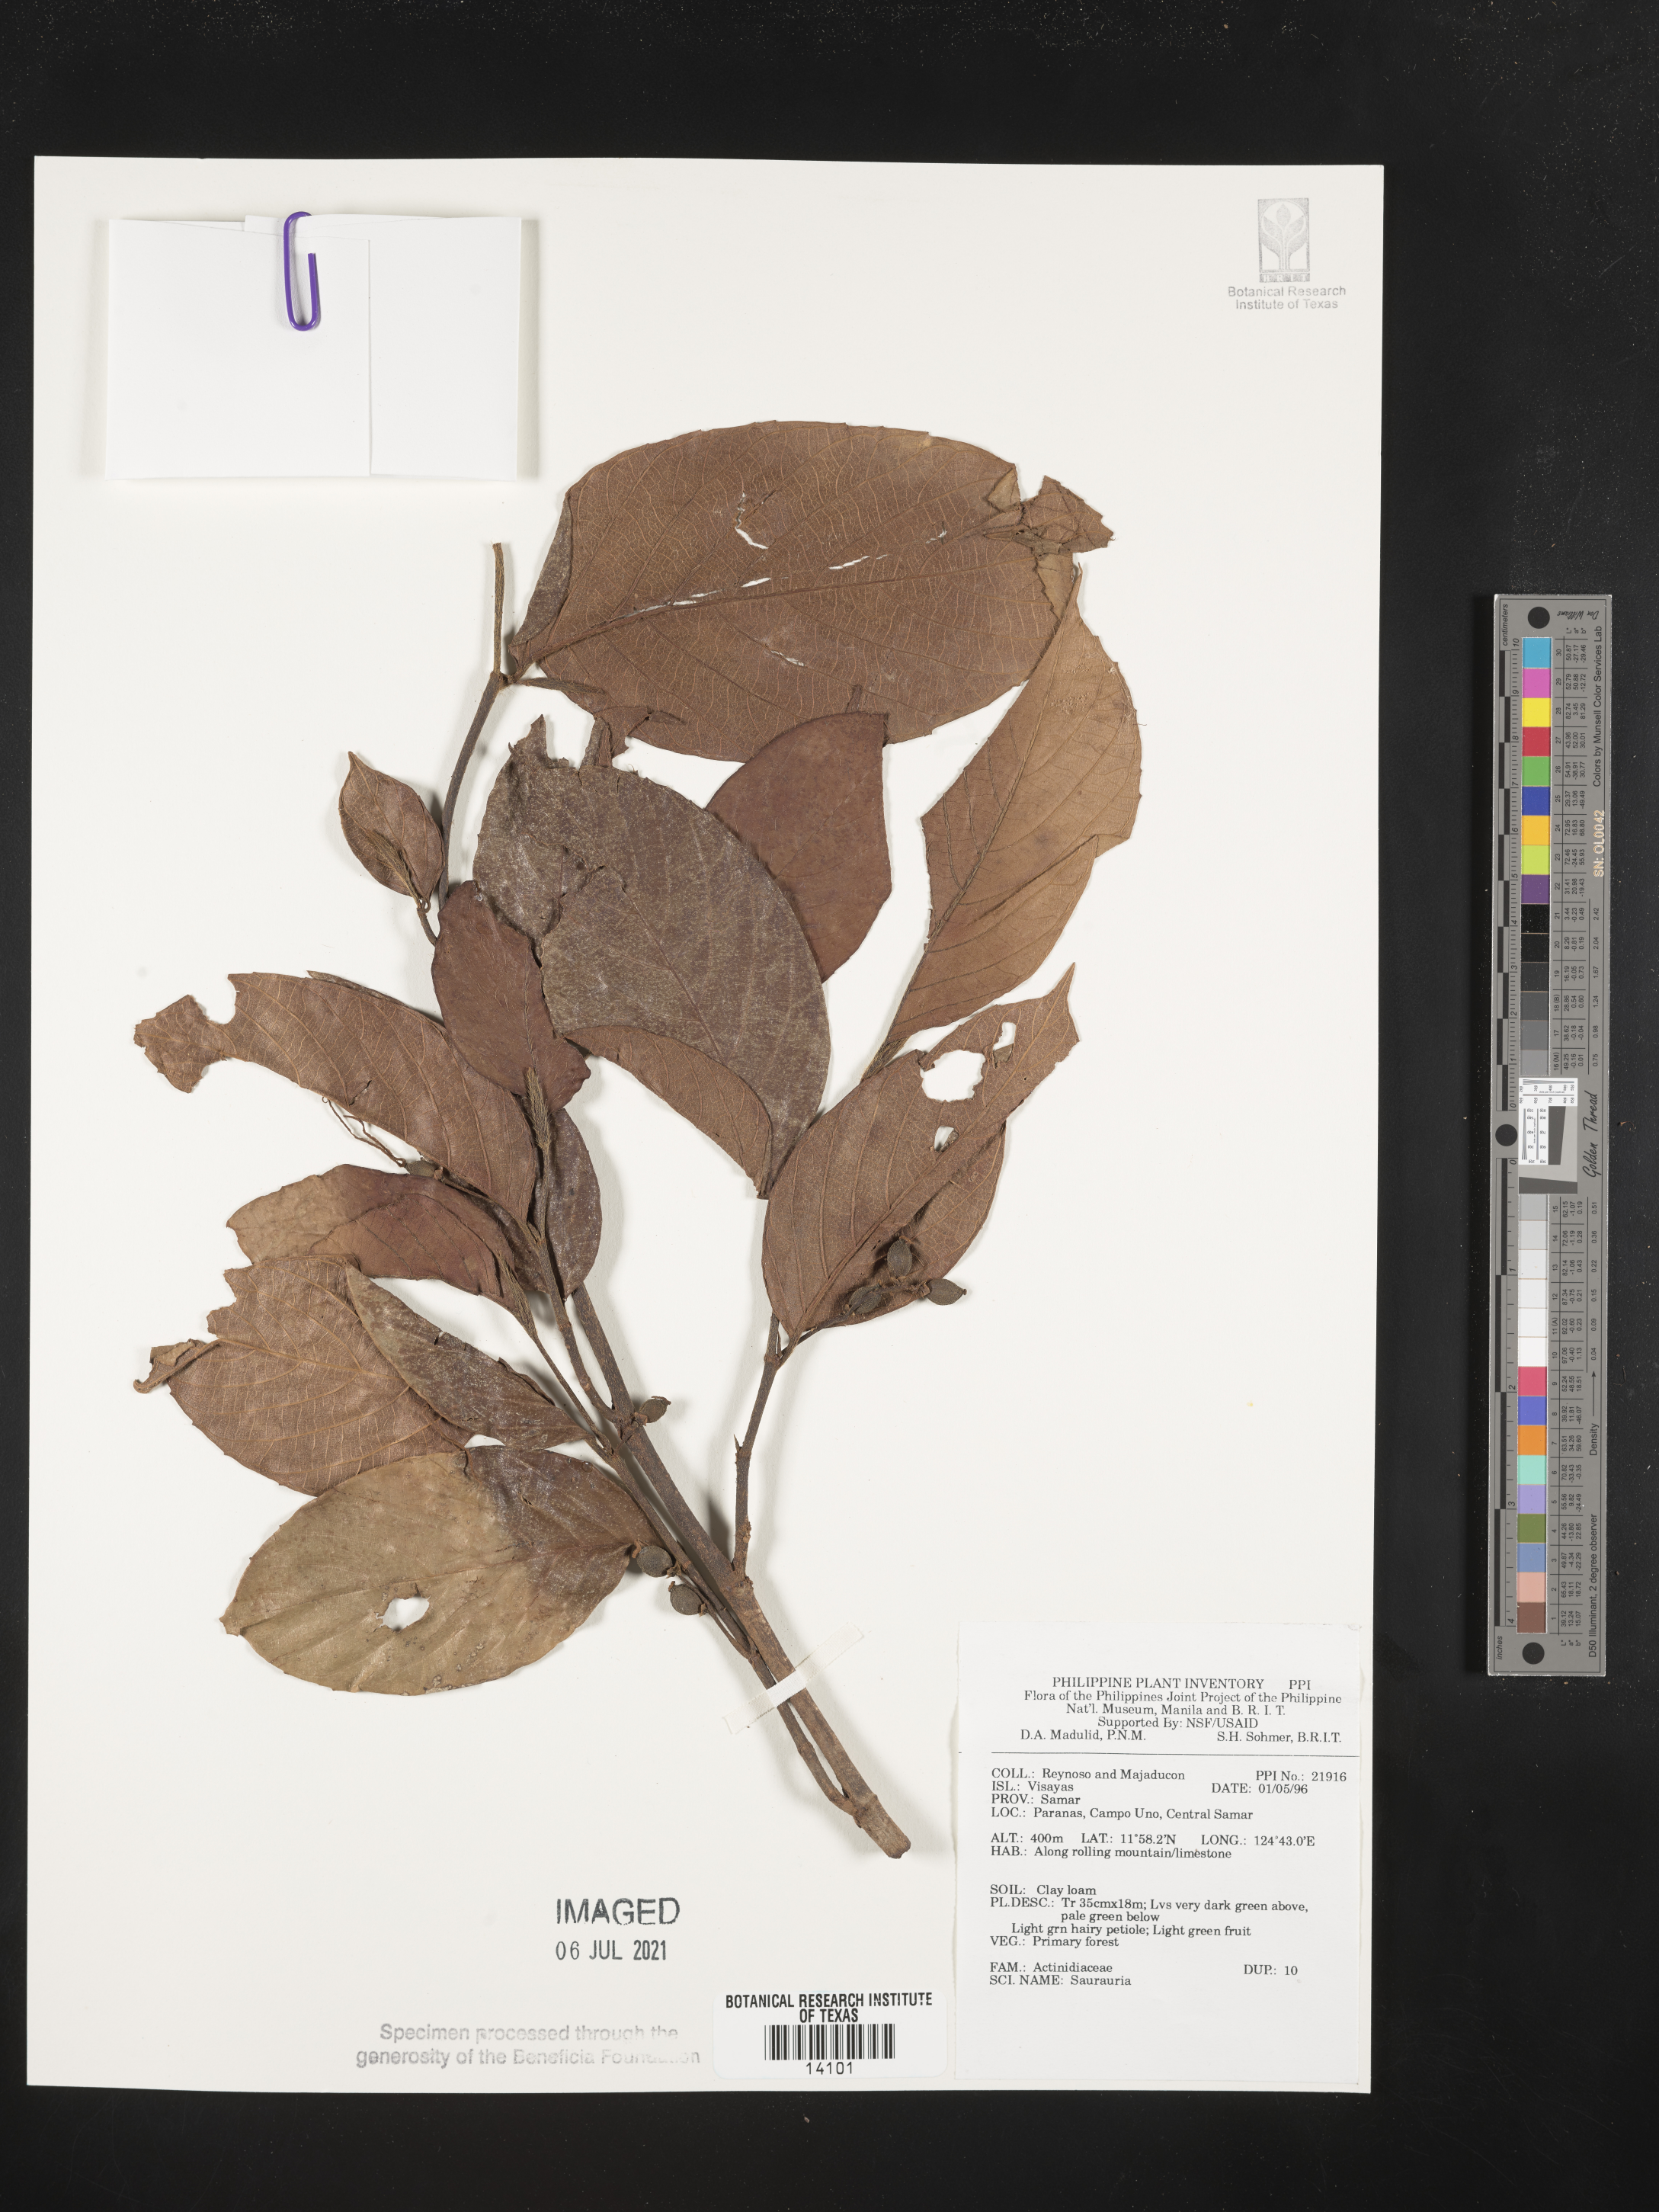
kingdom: Plantae
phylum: Tracheophyta
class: Magnoliopsida
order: Ericales
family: Actinidiaceae
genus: Saurauia
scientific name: Saurauia
